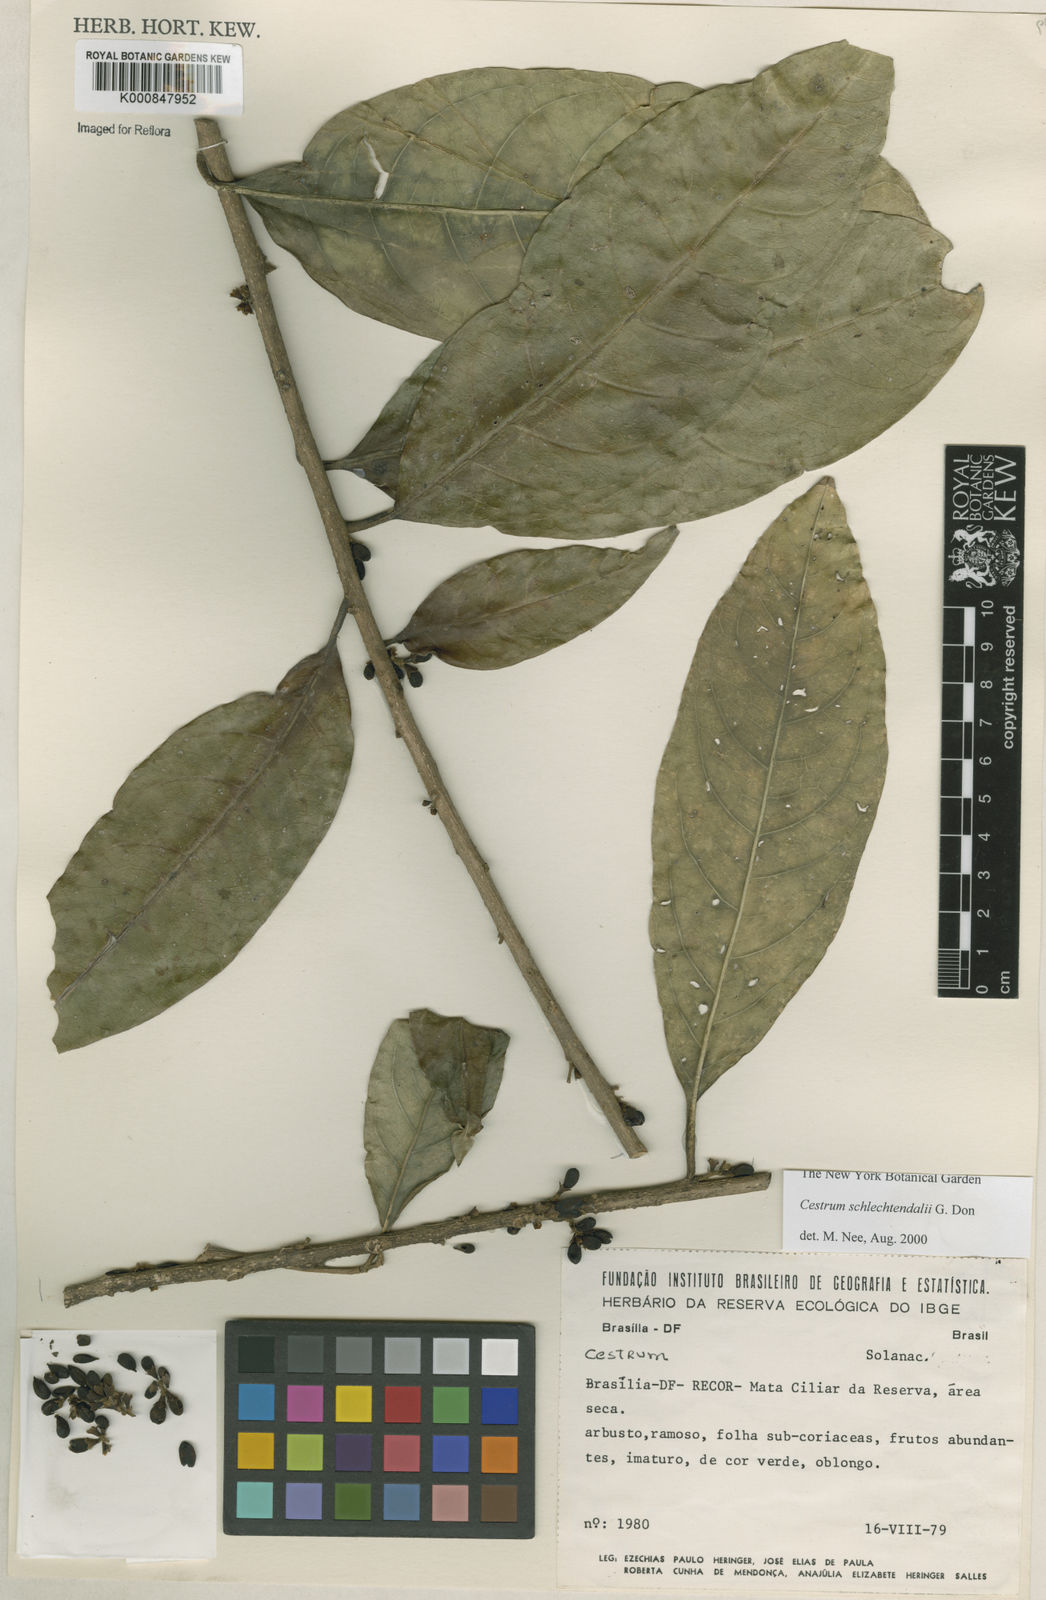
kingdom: Plantae
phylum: Tracheophyta
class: Magnoliopsida
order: Solanales
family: Solanaceae
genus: Cestrum
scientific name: Cestrum schlechtendalii
